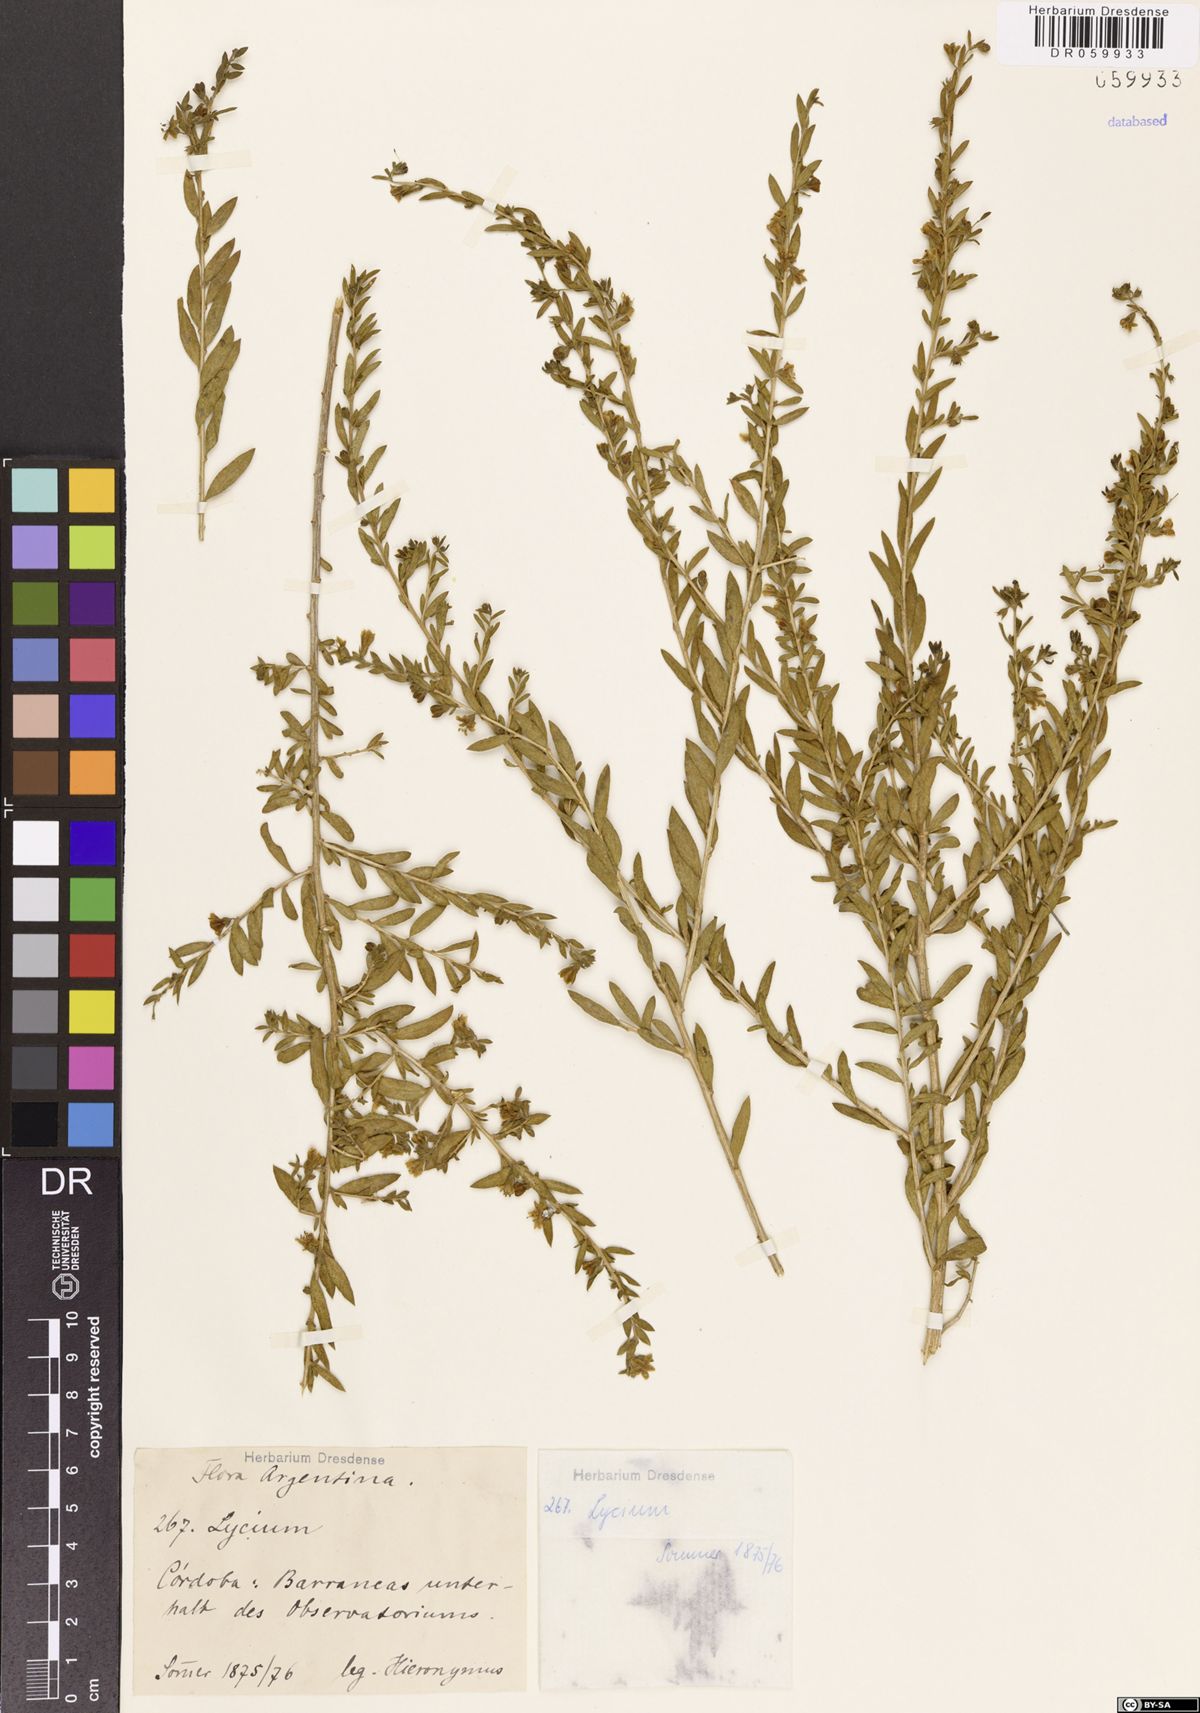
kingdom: Plantae
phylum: Tracheophyta
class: Magnoliopsida
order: Solanales
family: Solanaceae
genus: Lycium
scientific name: Lycium
